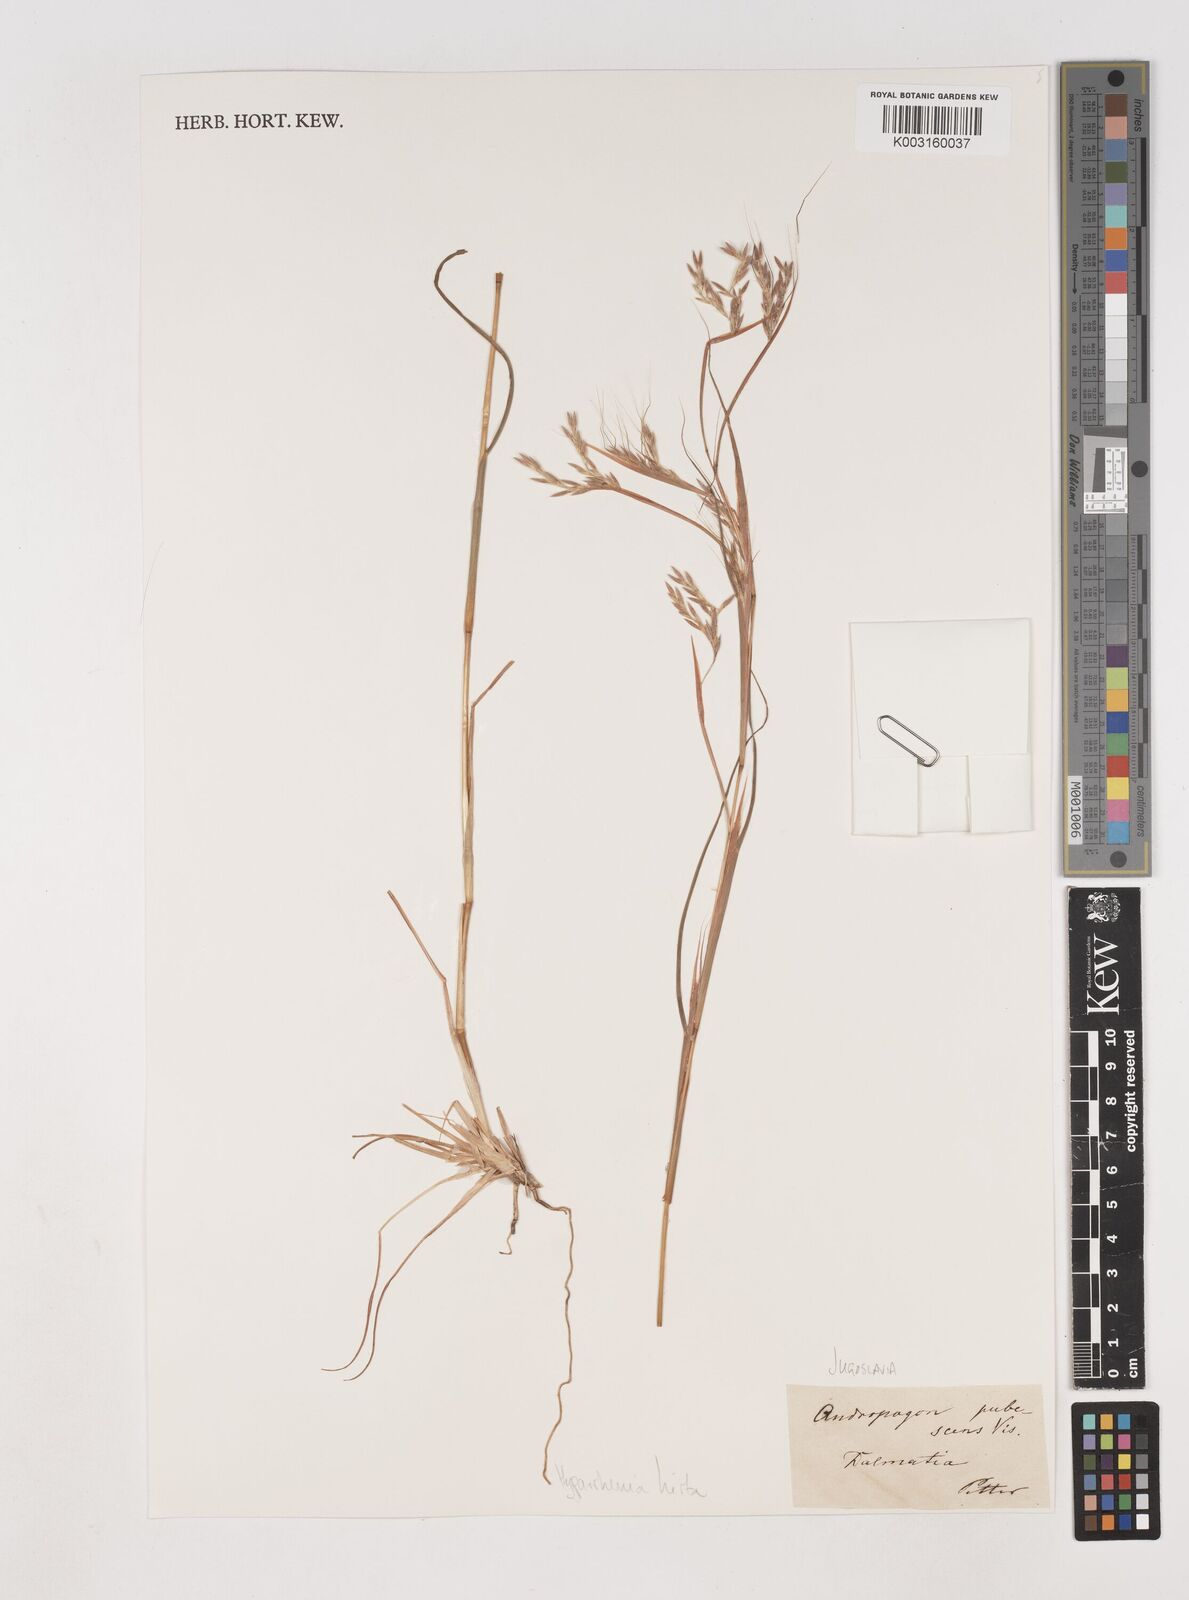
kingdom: Plantae
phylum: Tracheophyta
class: Liliopsida
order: Poales
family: Poaceae
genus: Hyparrhenia
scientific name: Hyparrhenia hirta
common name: Thatching grass
